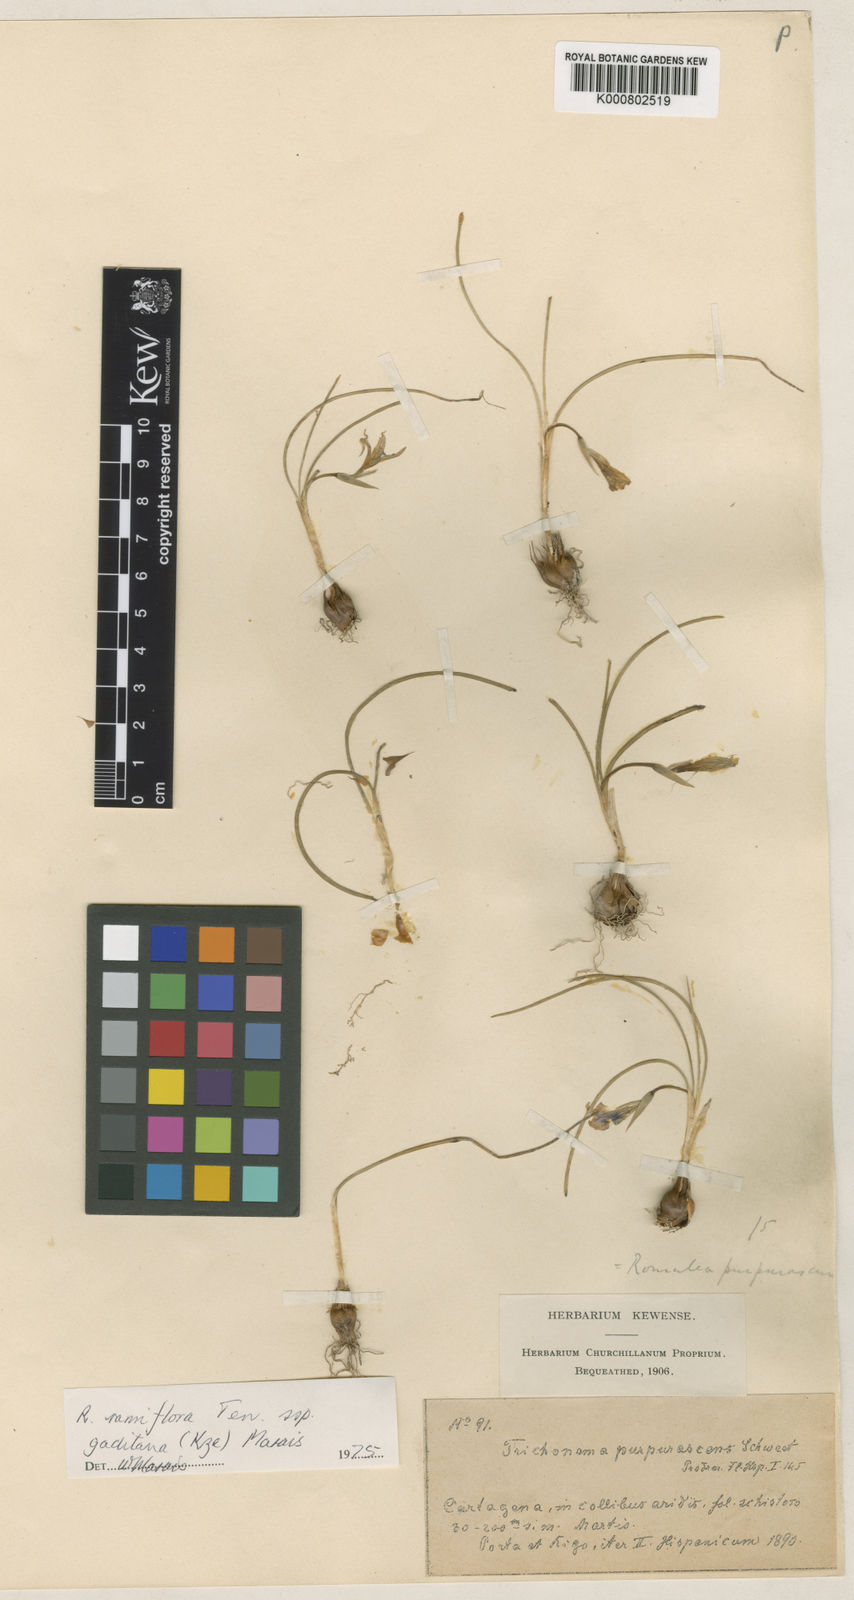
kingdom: Plantae
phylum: Tracheophyta
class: Liliopsida
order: Asparagales
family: Iridaceae
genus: Romulea
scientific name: Romulea ramiflora
